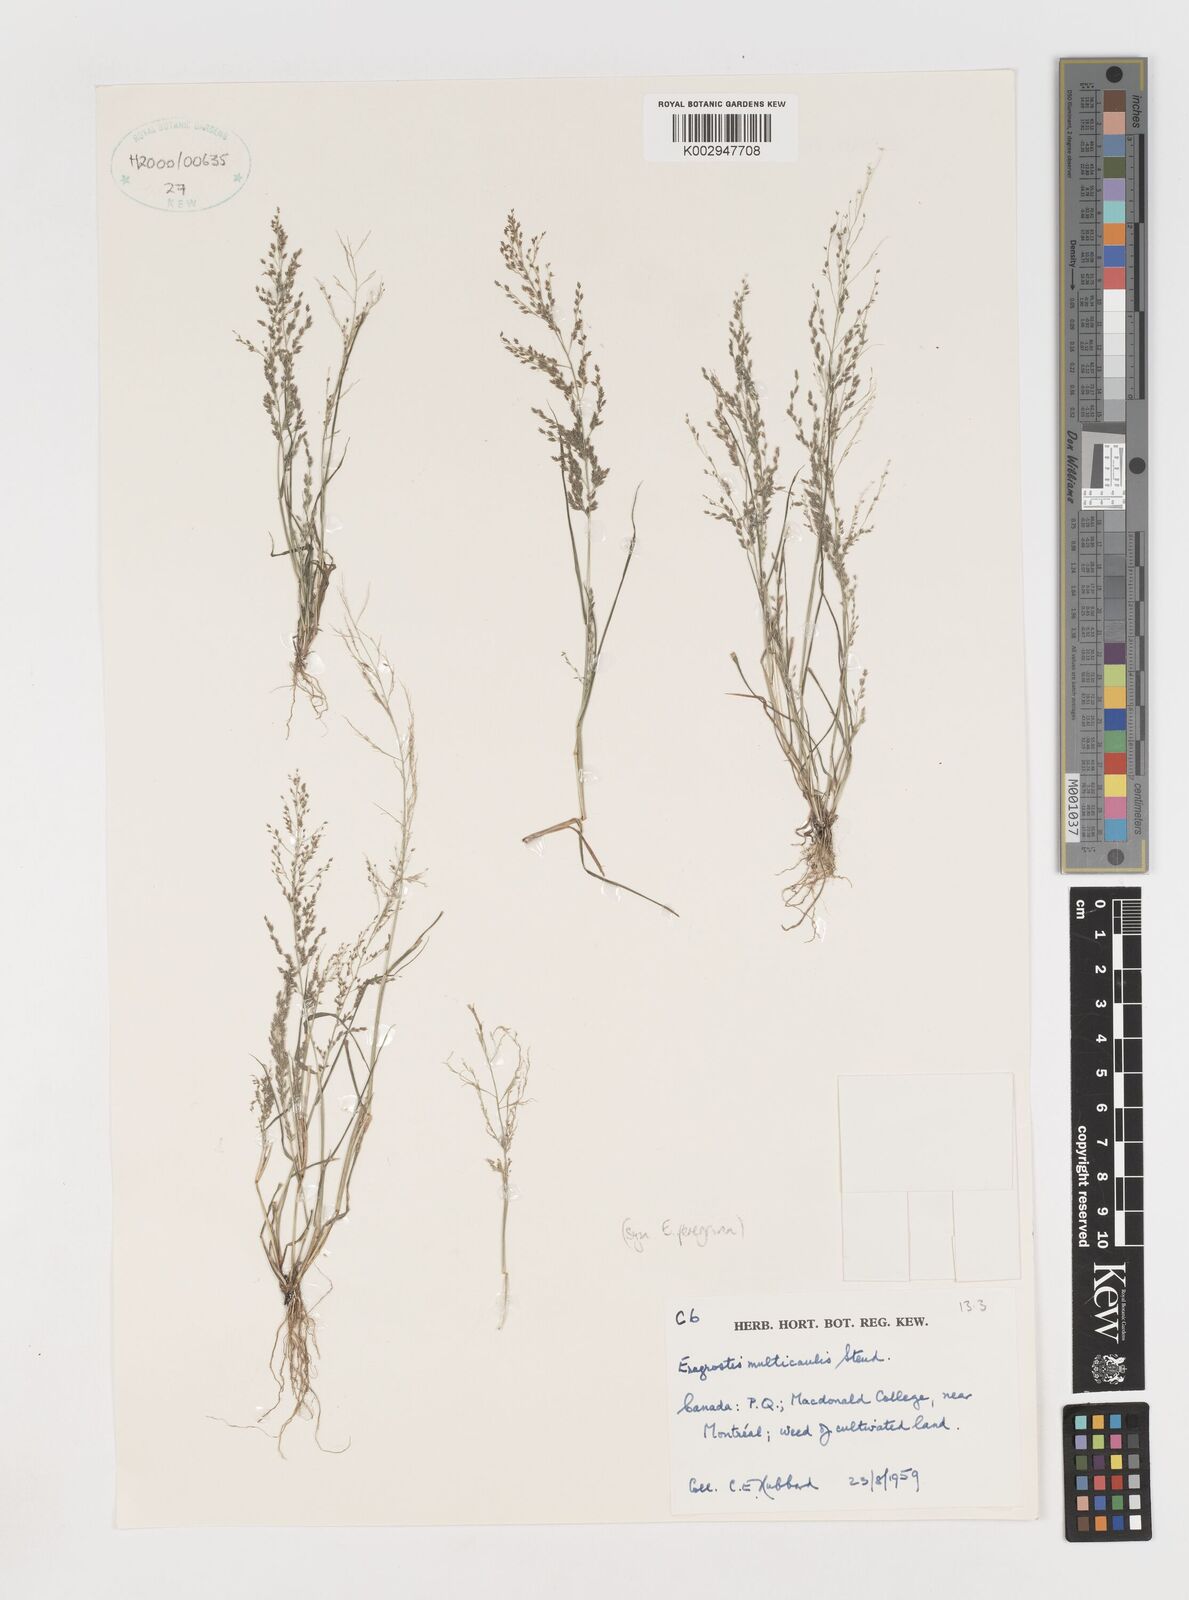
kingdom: Plantae
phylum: Tracheophyta
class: Liliopsida
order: Poales
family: Poaceae
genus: Eragrostis
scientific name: Eragrostis pilosa
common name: Indian lovegrass
